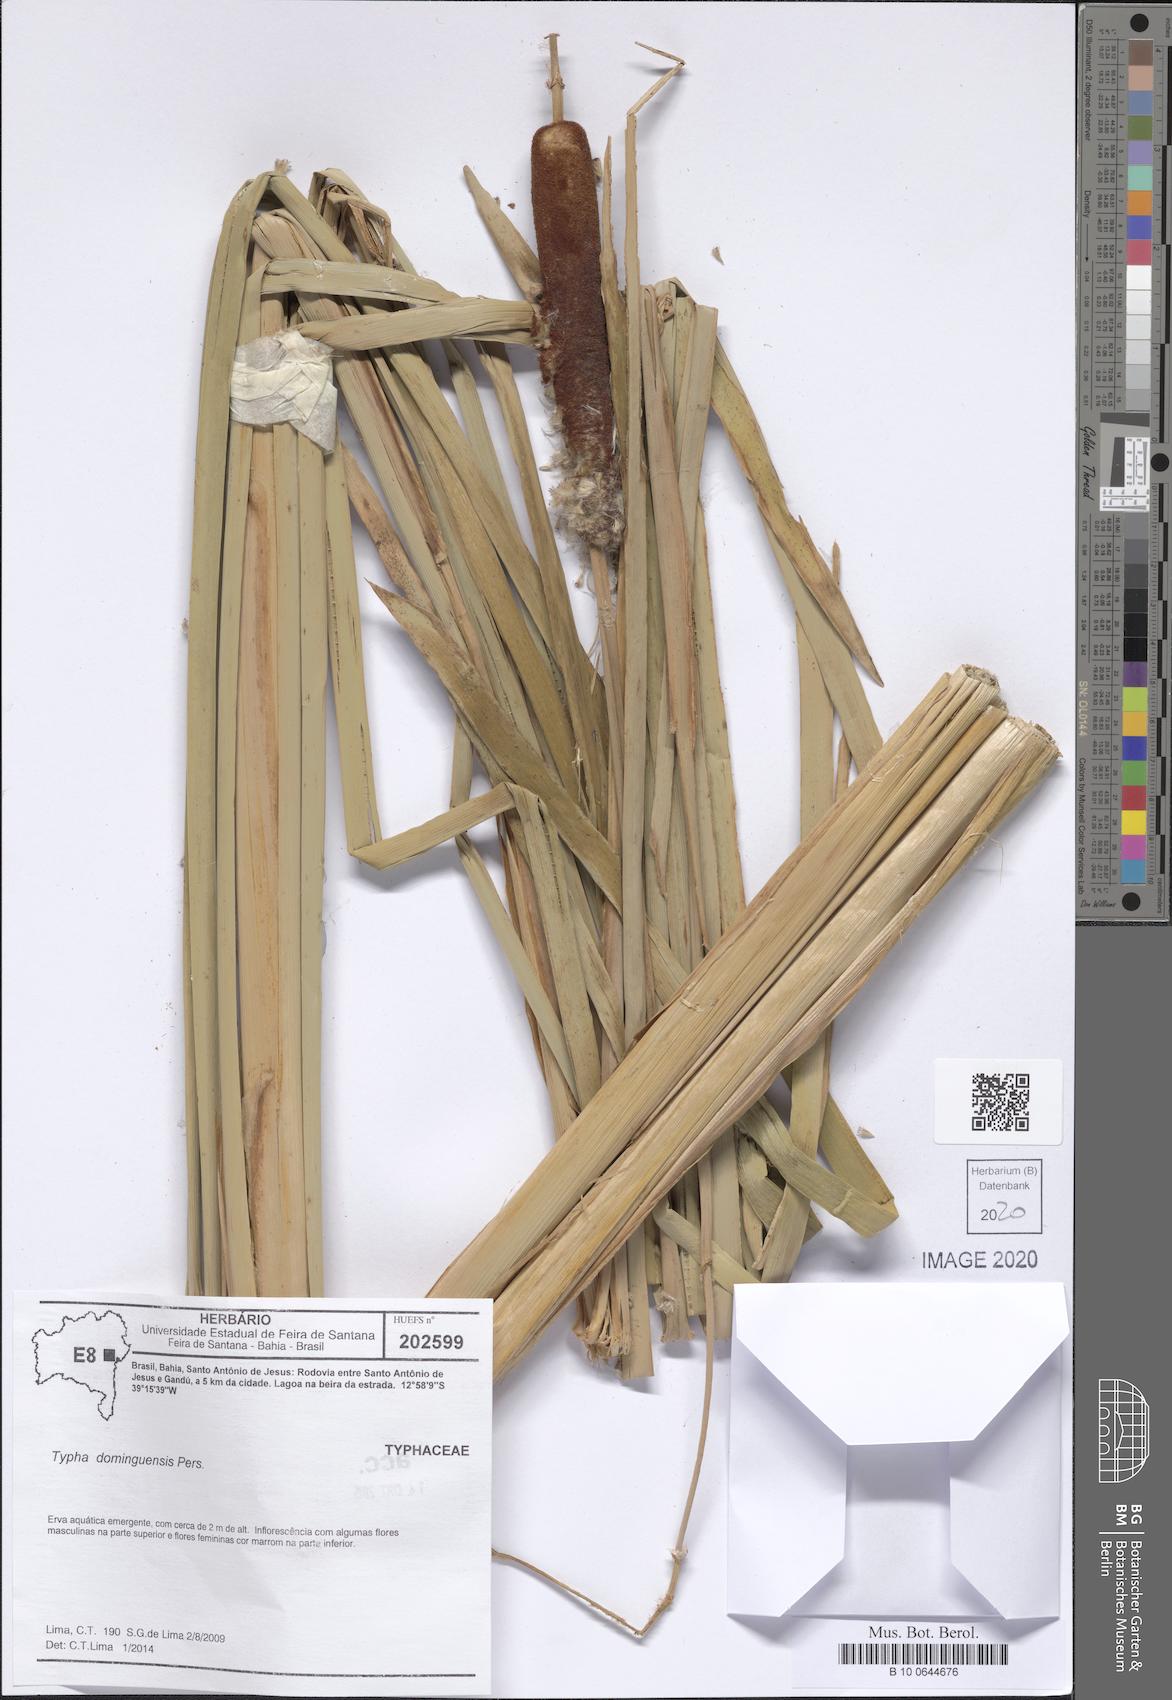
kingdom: Plantae
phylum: Tracheophyta
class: Liliopsida
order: Poales
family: Typhaceae
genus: Typha
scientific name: Typha domingensis
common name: Southern cattail
